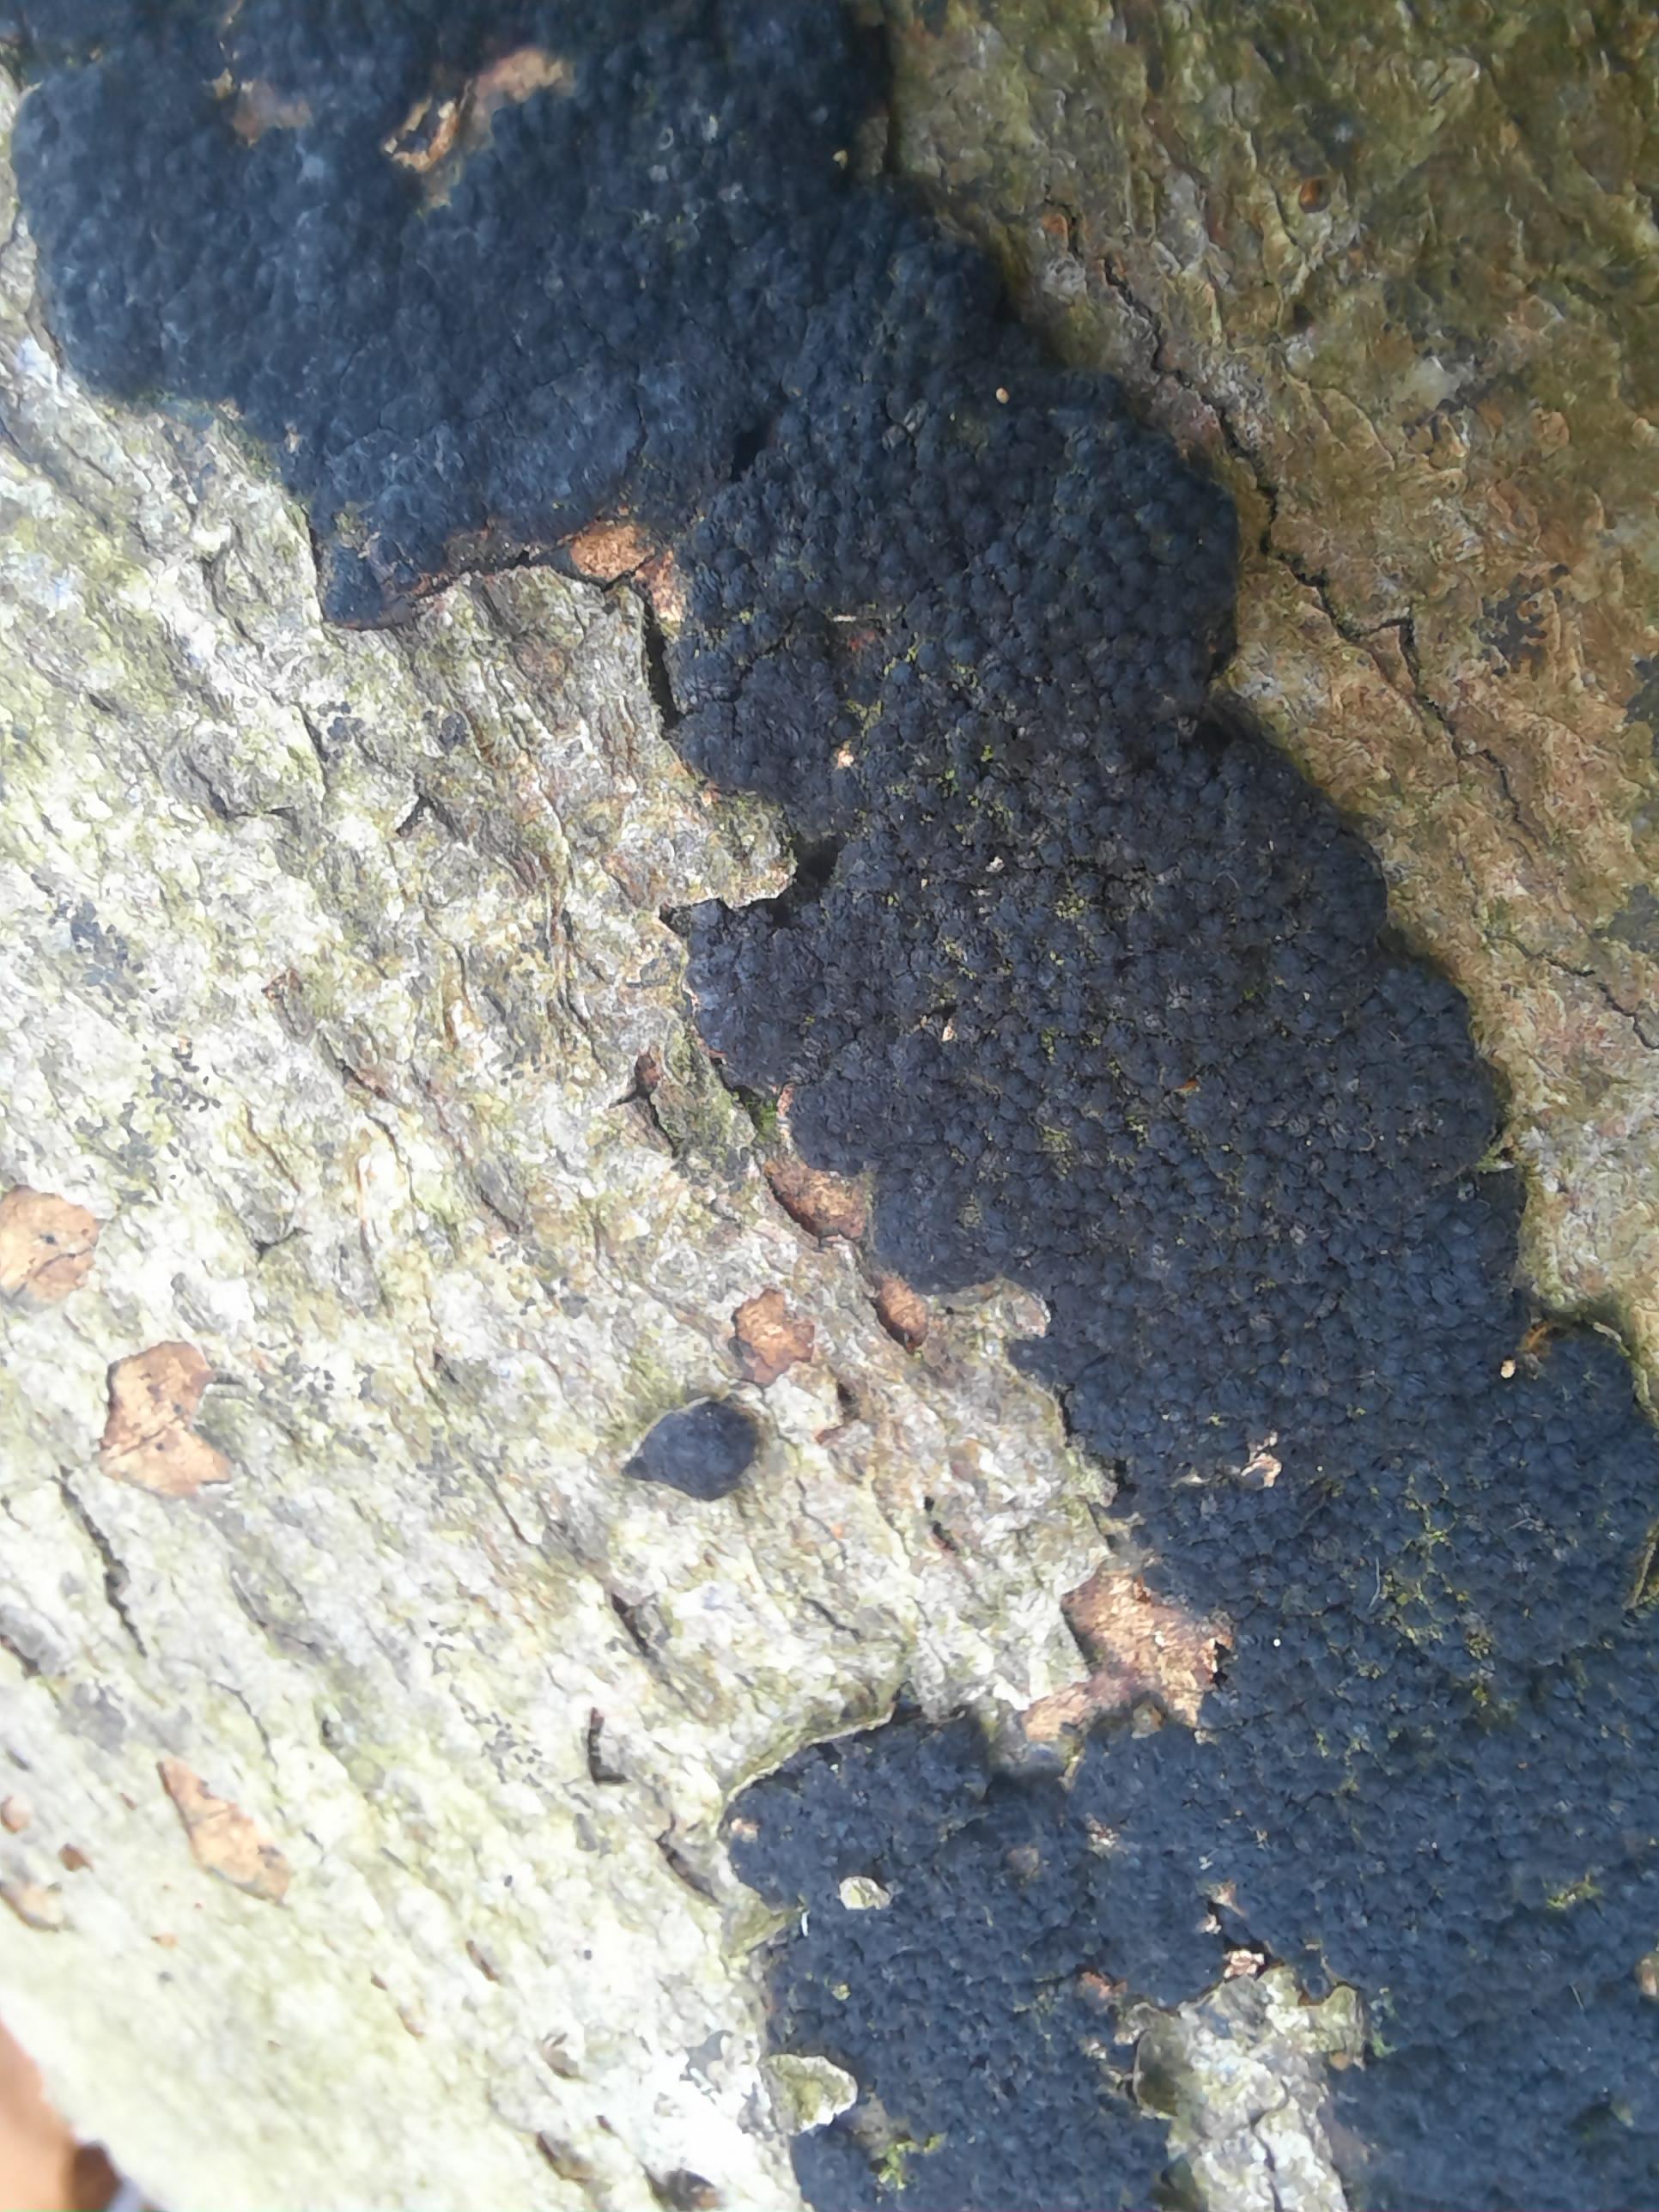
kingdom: Fungi
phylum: Ascomycota
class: Sordariomycetes
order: Xylariales
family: Diatrypaceae
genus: Eutypa
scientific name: Eutypa spinosa
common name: grov kulskorpe
